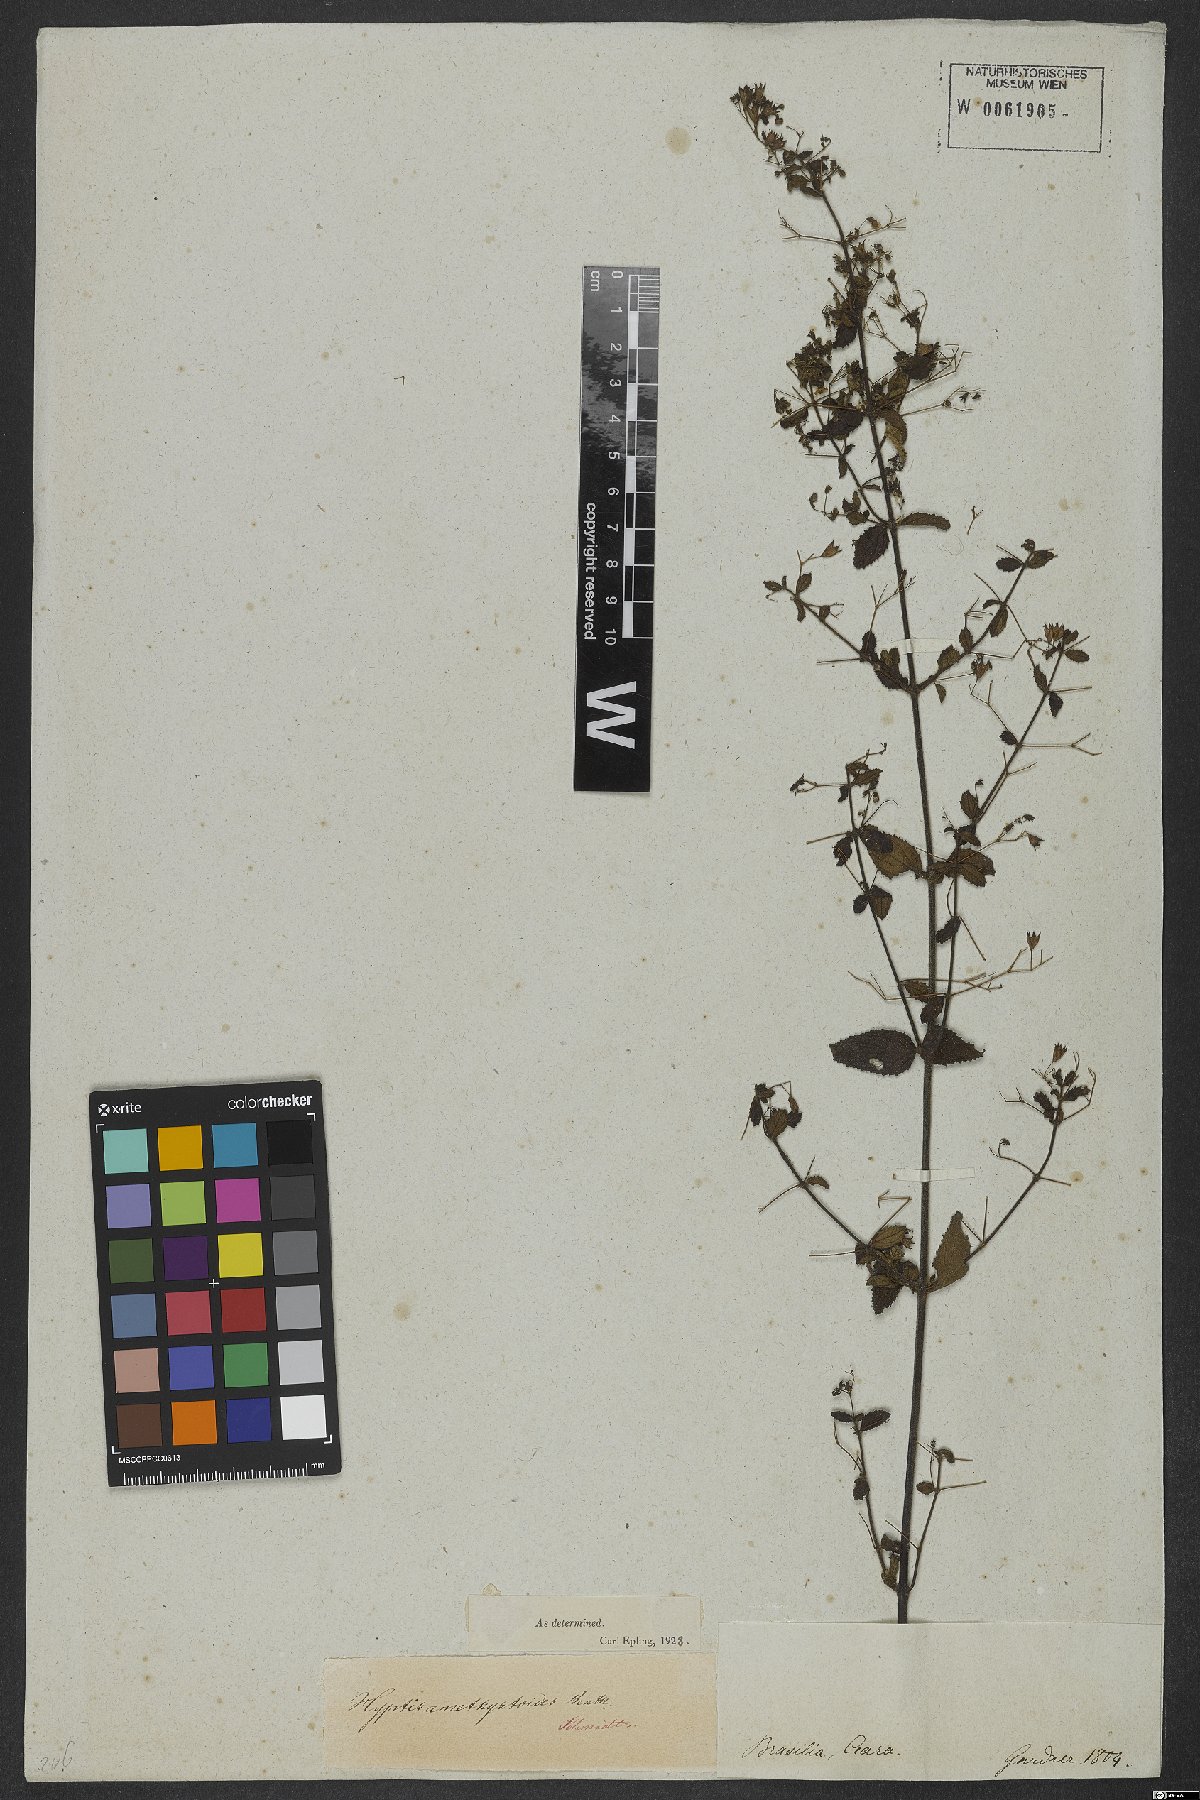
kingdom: Plantae
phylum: Tracheophyta
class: Magnoliopsida
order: Lamiales
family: Lamiaceae
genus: Hyptidendron
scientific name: Hyptidendron amethystoides
